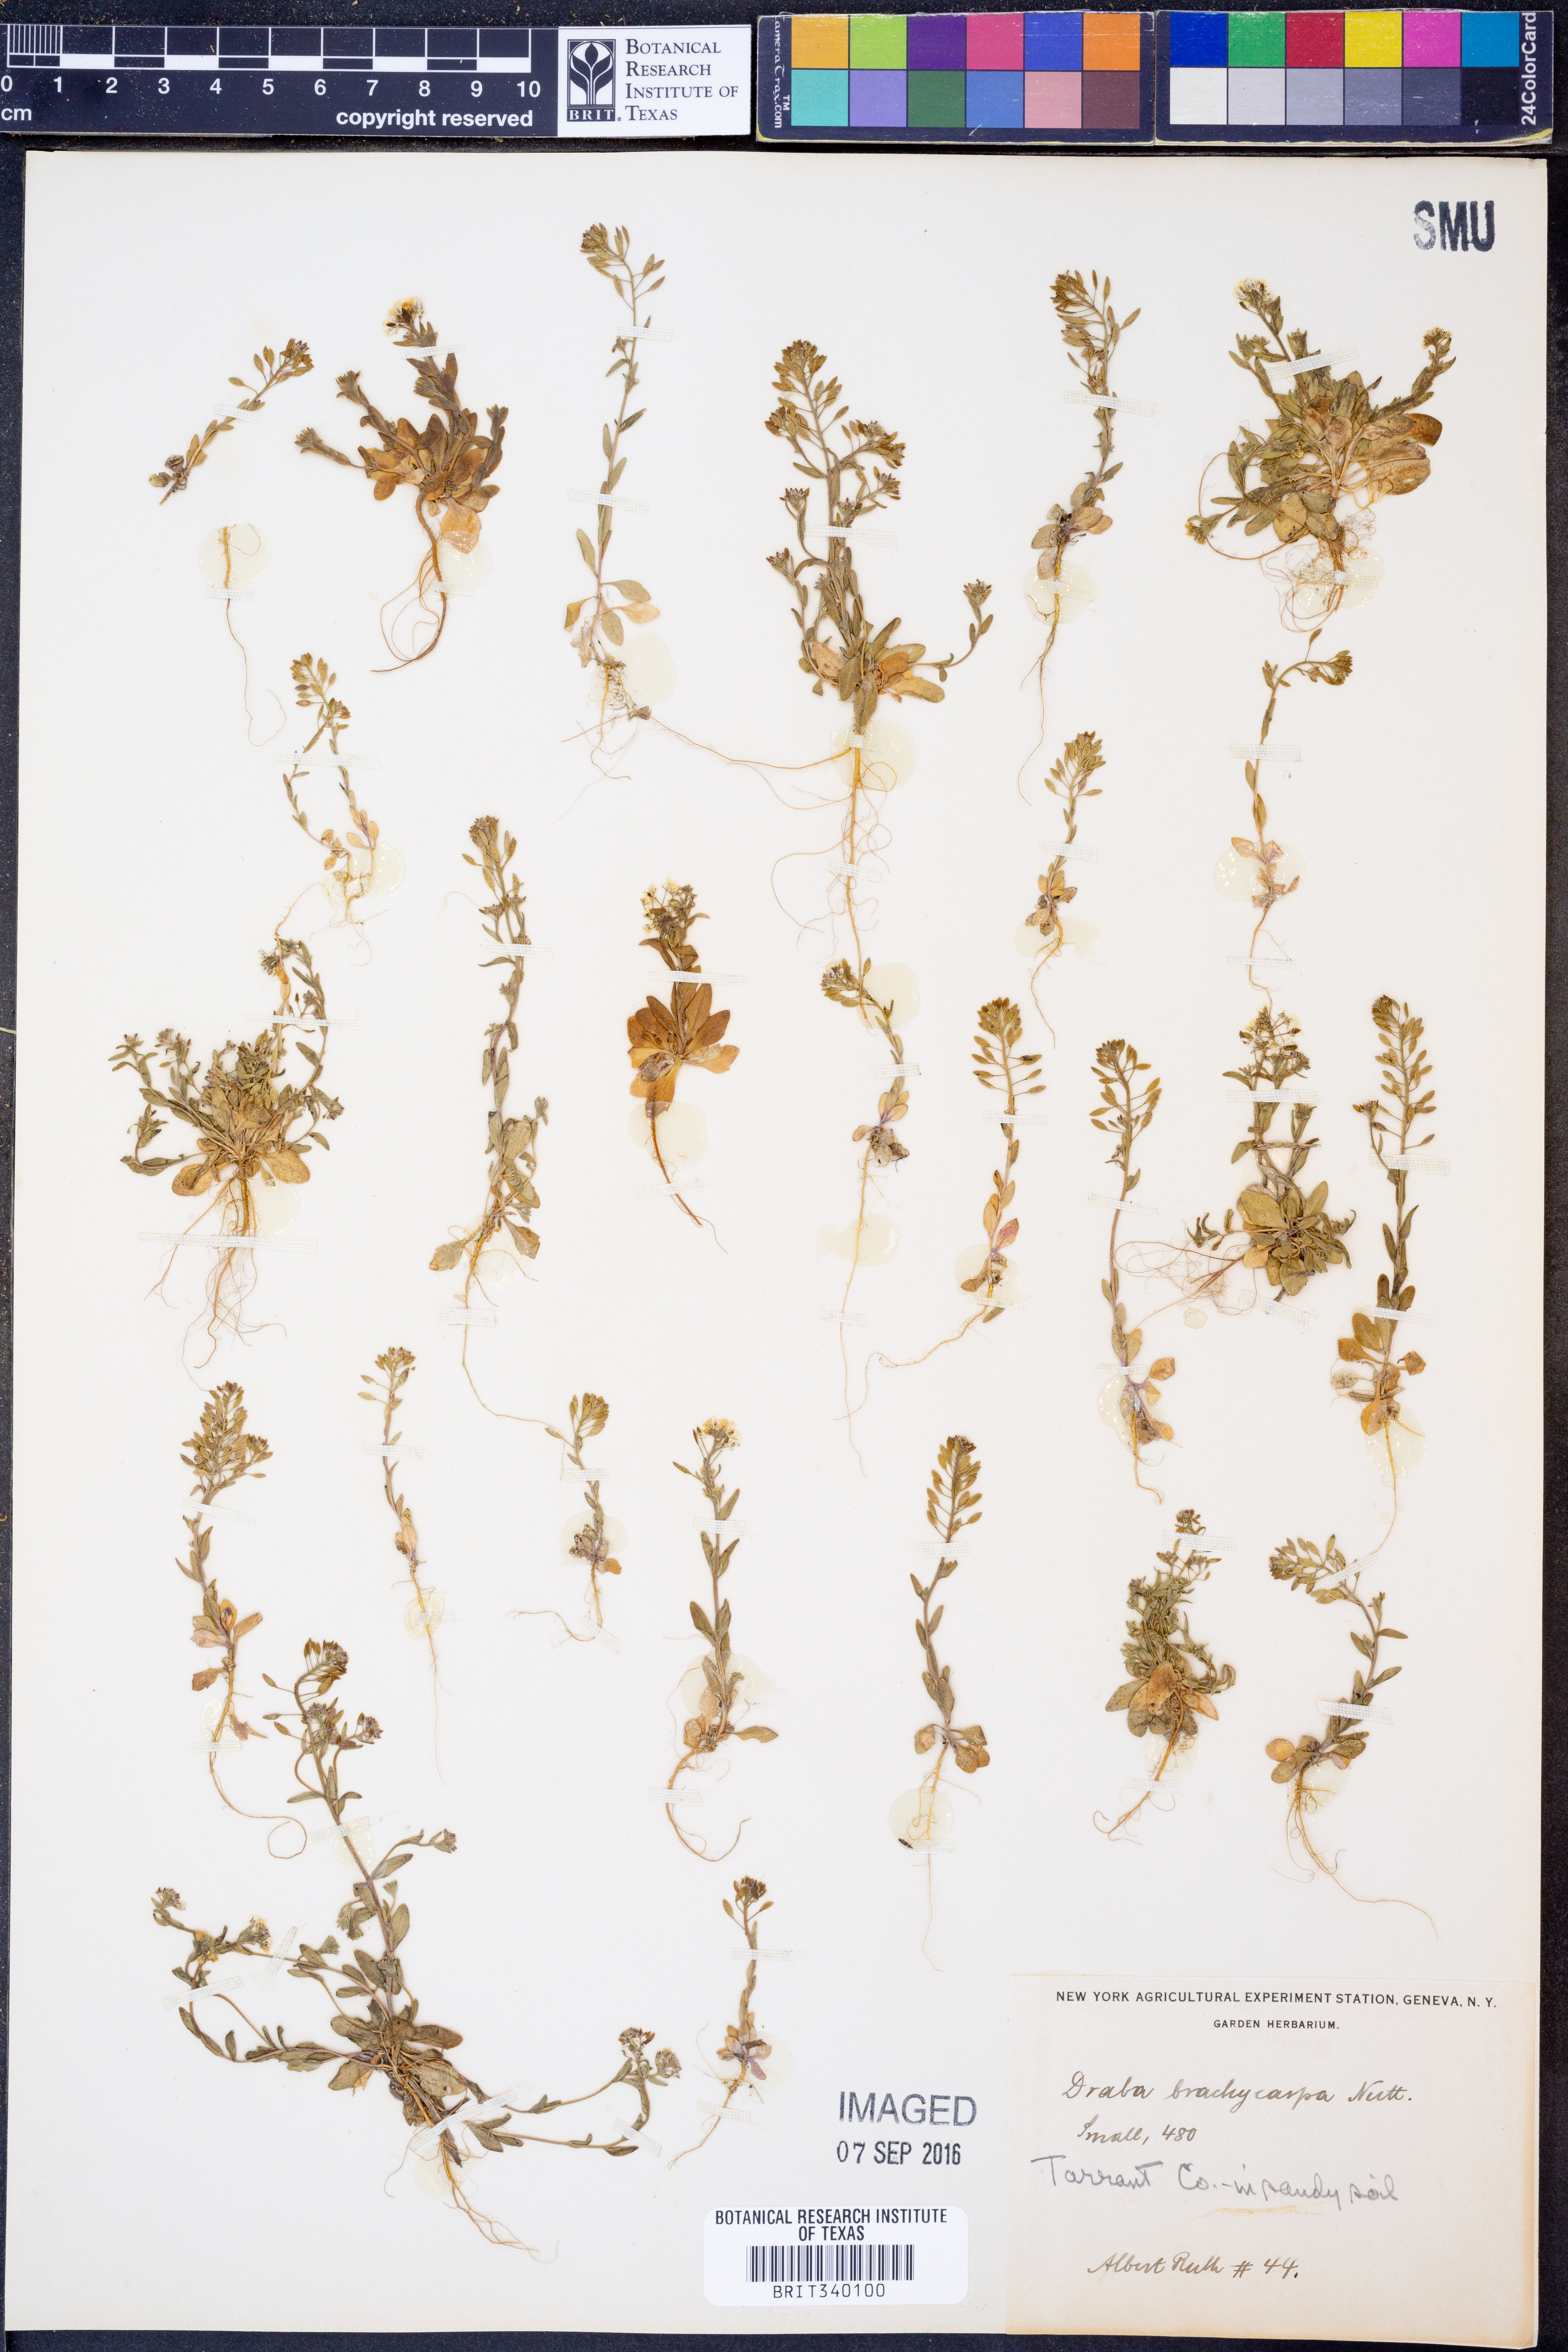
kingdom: Plantae
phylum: Tracheophyta
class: Magnoliopsida
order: Brassicales
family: Brassicaceae
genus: Abdra
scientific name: Abdra brachycarpa
